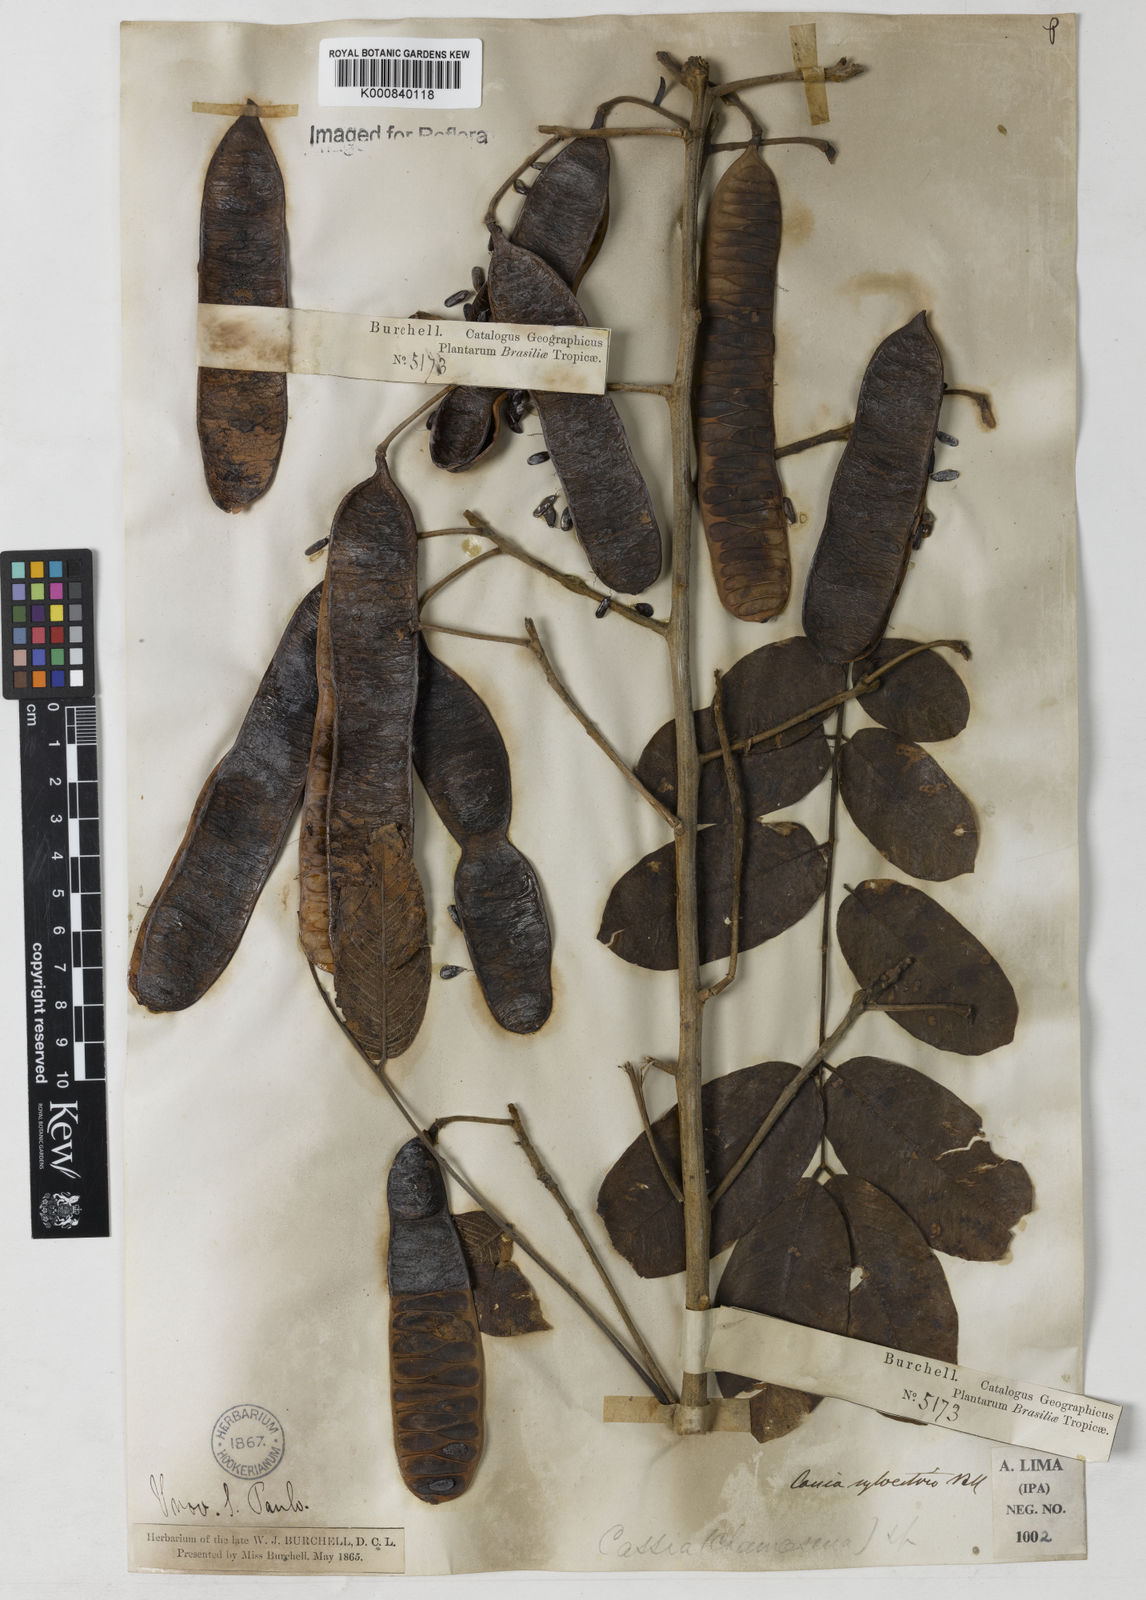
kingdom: Plantae
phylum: Tracheophyta
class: Magnoliopsida
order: Fabales
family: Fabaceae
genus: Senna
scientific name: Senna silvestris
